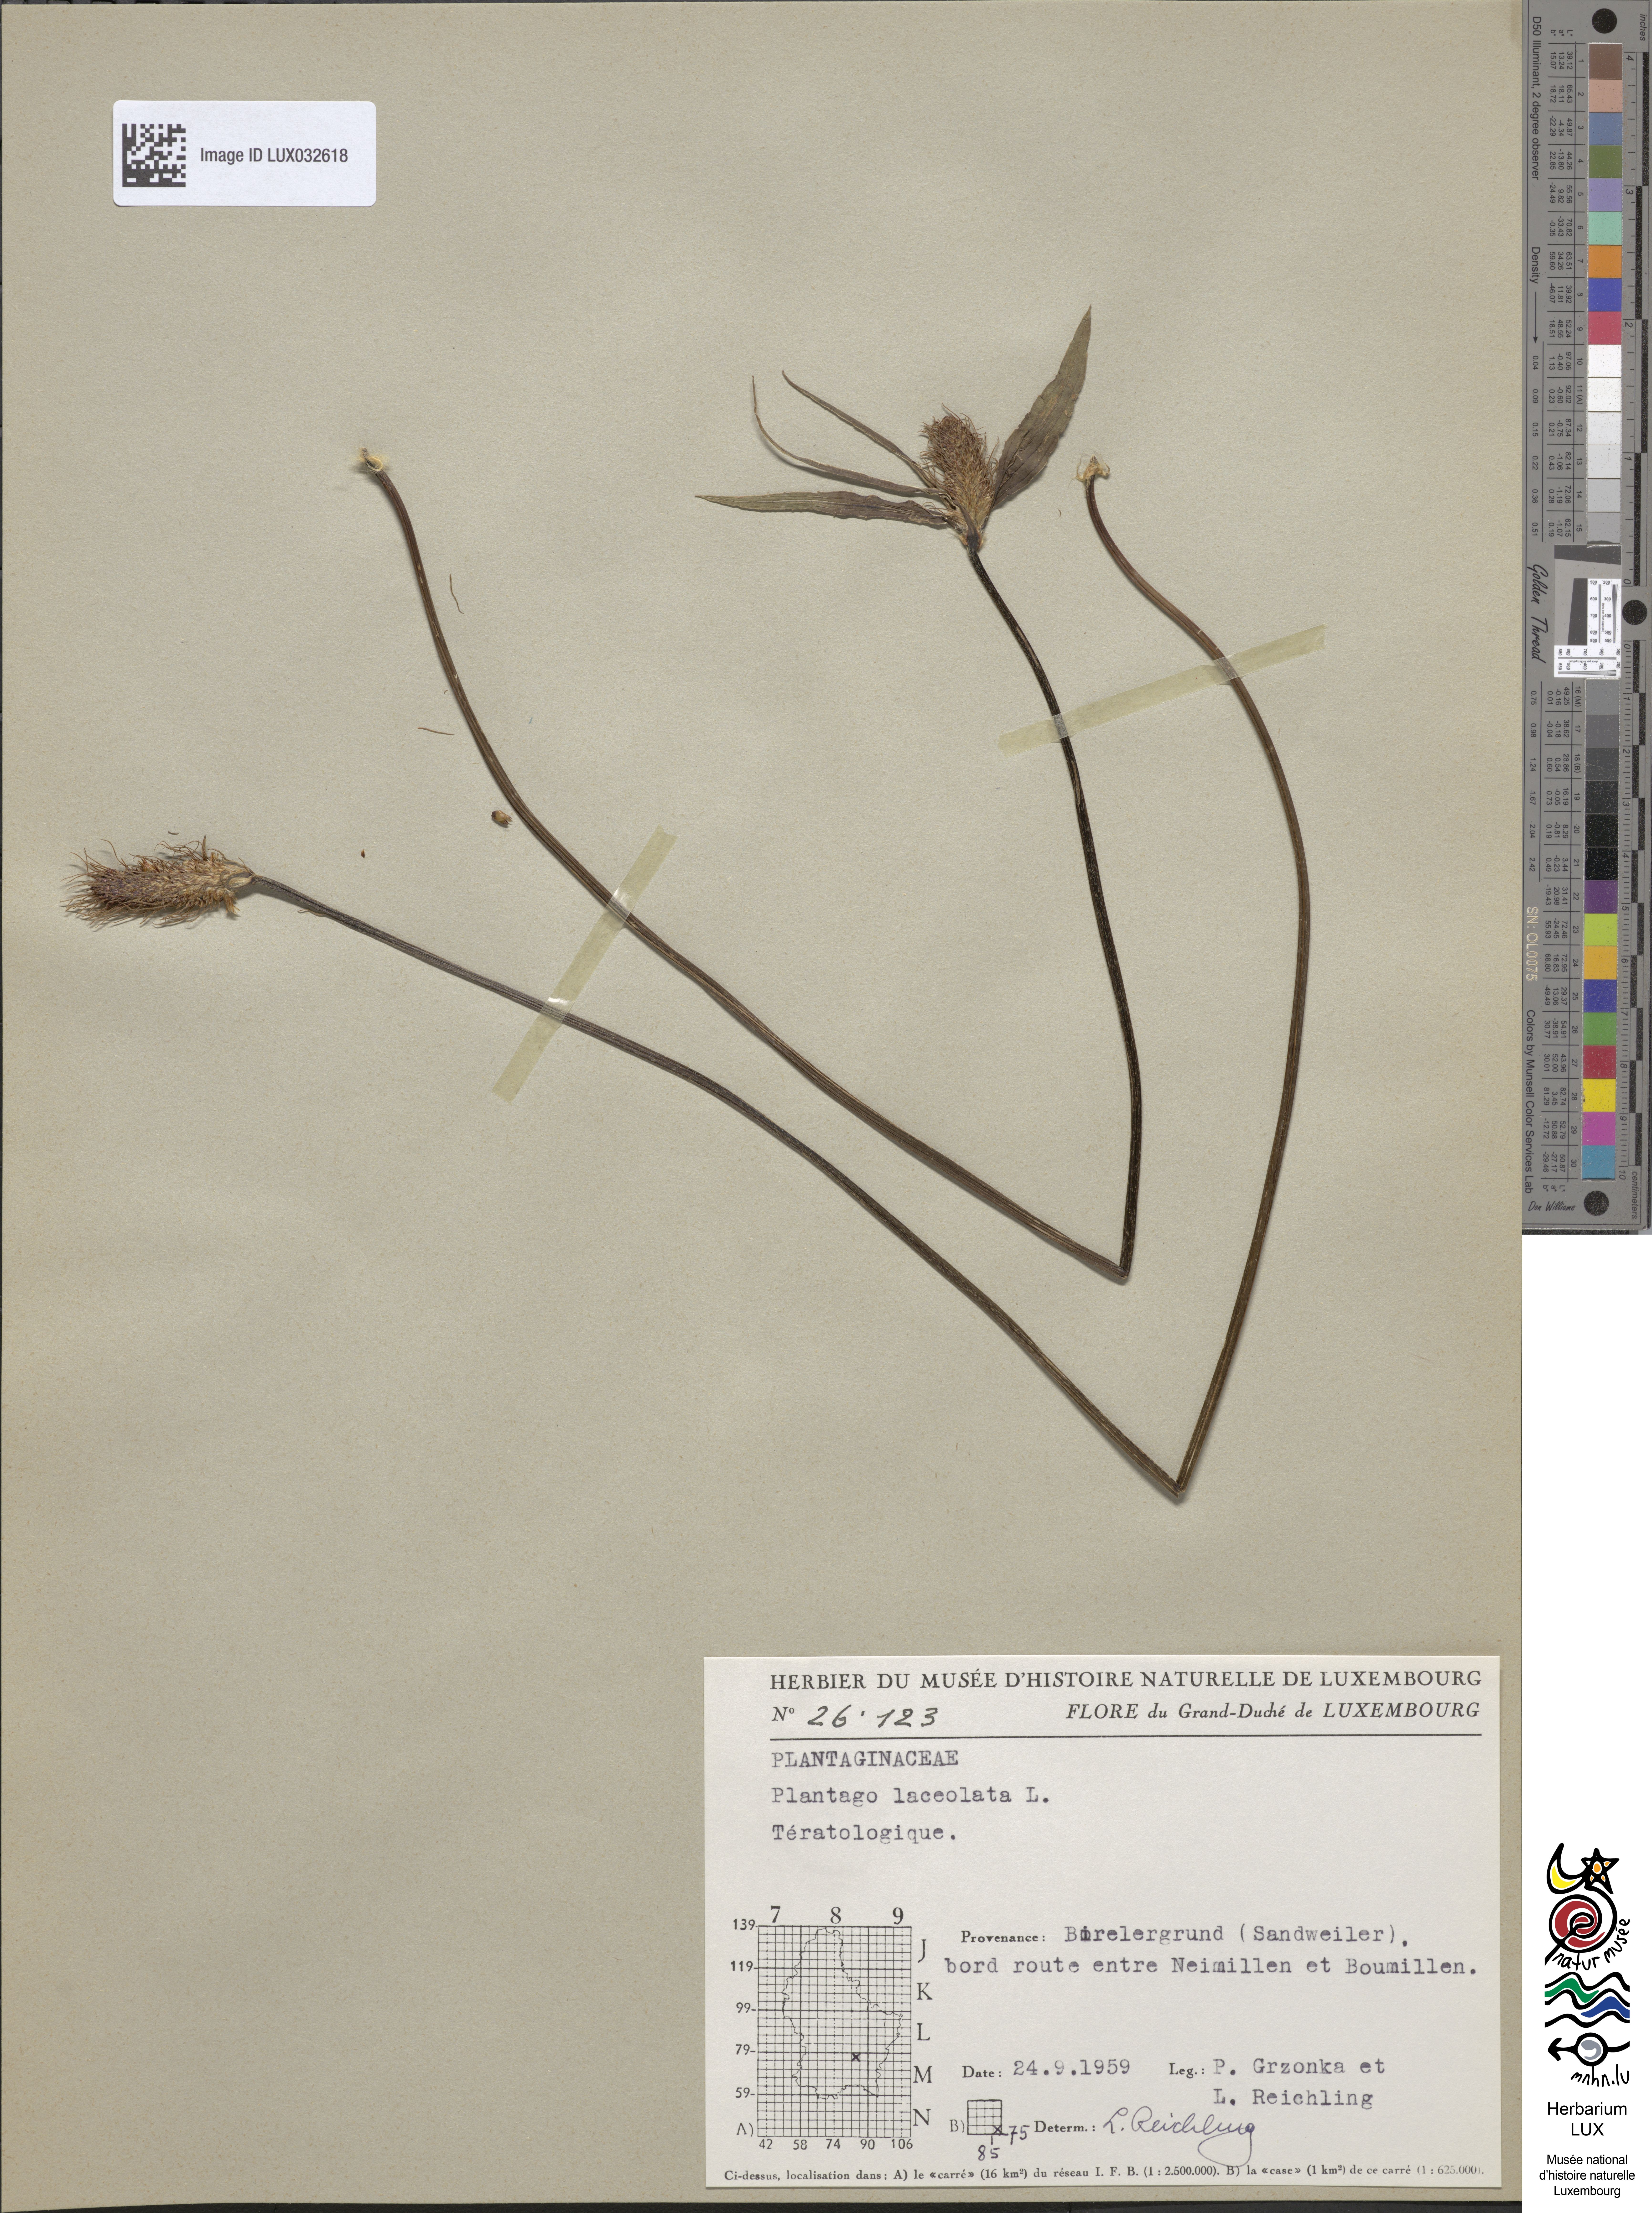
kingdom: Plantae
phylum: Tracheophyta
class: Magnoliopsida
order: Lamiales
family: Plantaginaceae
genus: Plantago
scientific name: Plantago lanceolata
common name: Ribwort plantain
